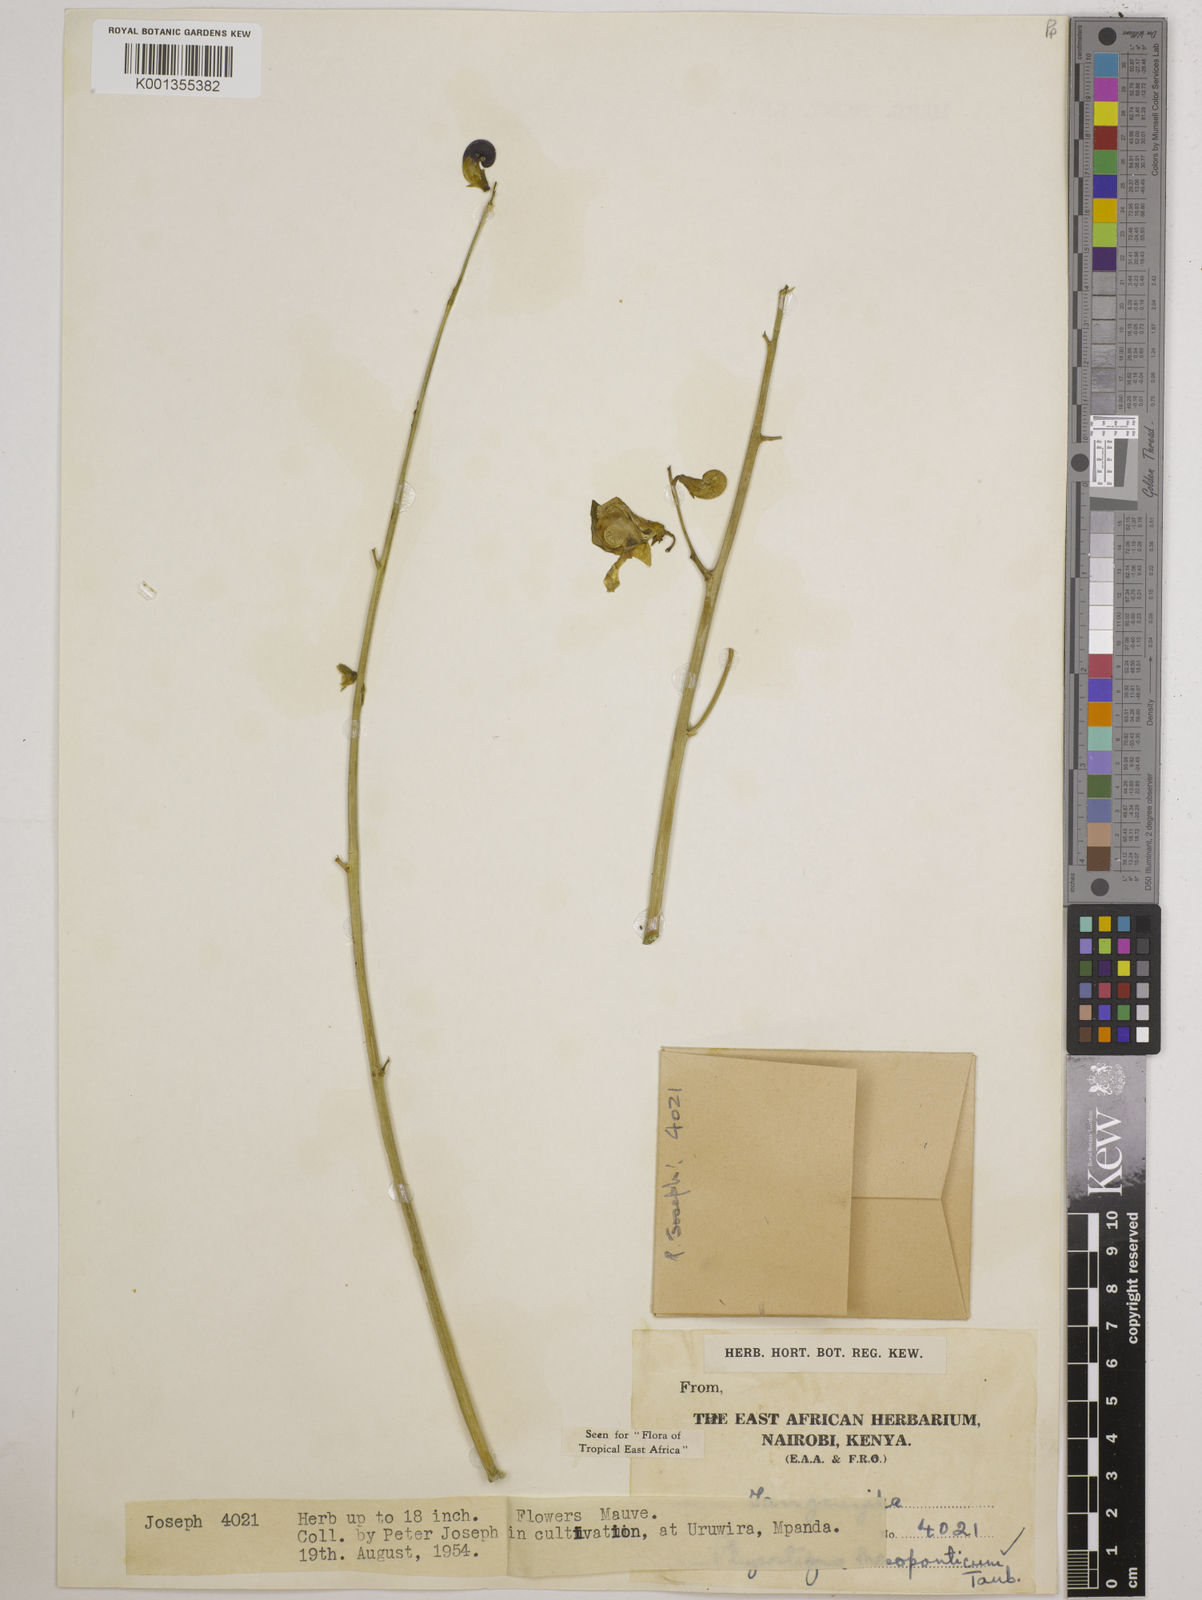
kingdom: Plantae
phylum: Tracheophyta
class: Magnoliopsida
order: Fabales
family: Fabaceae
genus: Physostigma
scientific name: Physostigma mesoponticum
